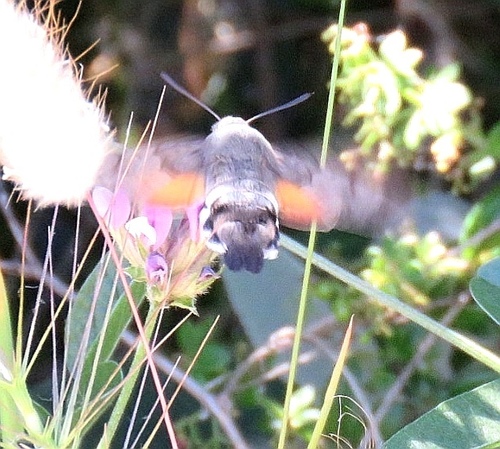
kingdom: Animalia
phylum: Arthropoda
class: Insecta
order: Lepidoptera
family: Sphingidae
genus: Macroglossum
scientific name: Macroglossum stellatarum
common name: Humming-bird hawk-moth
